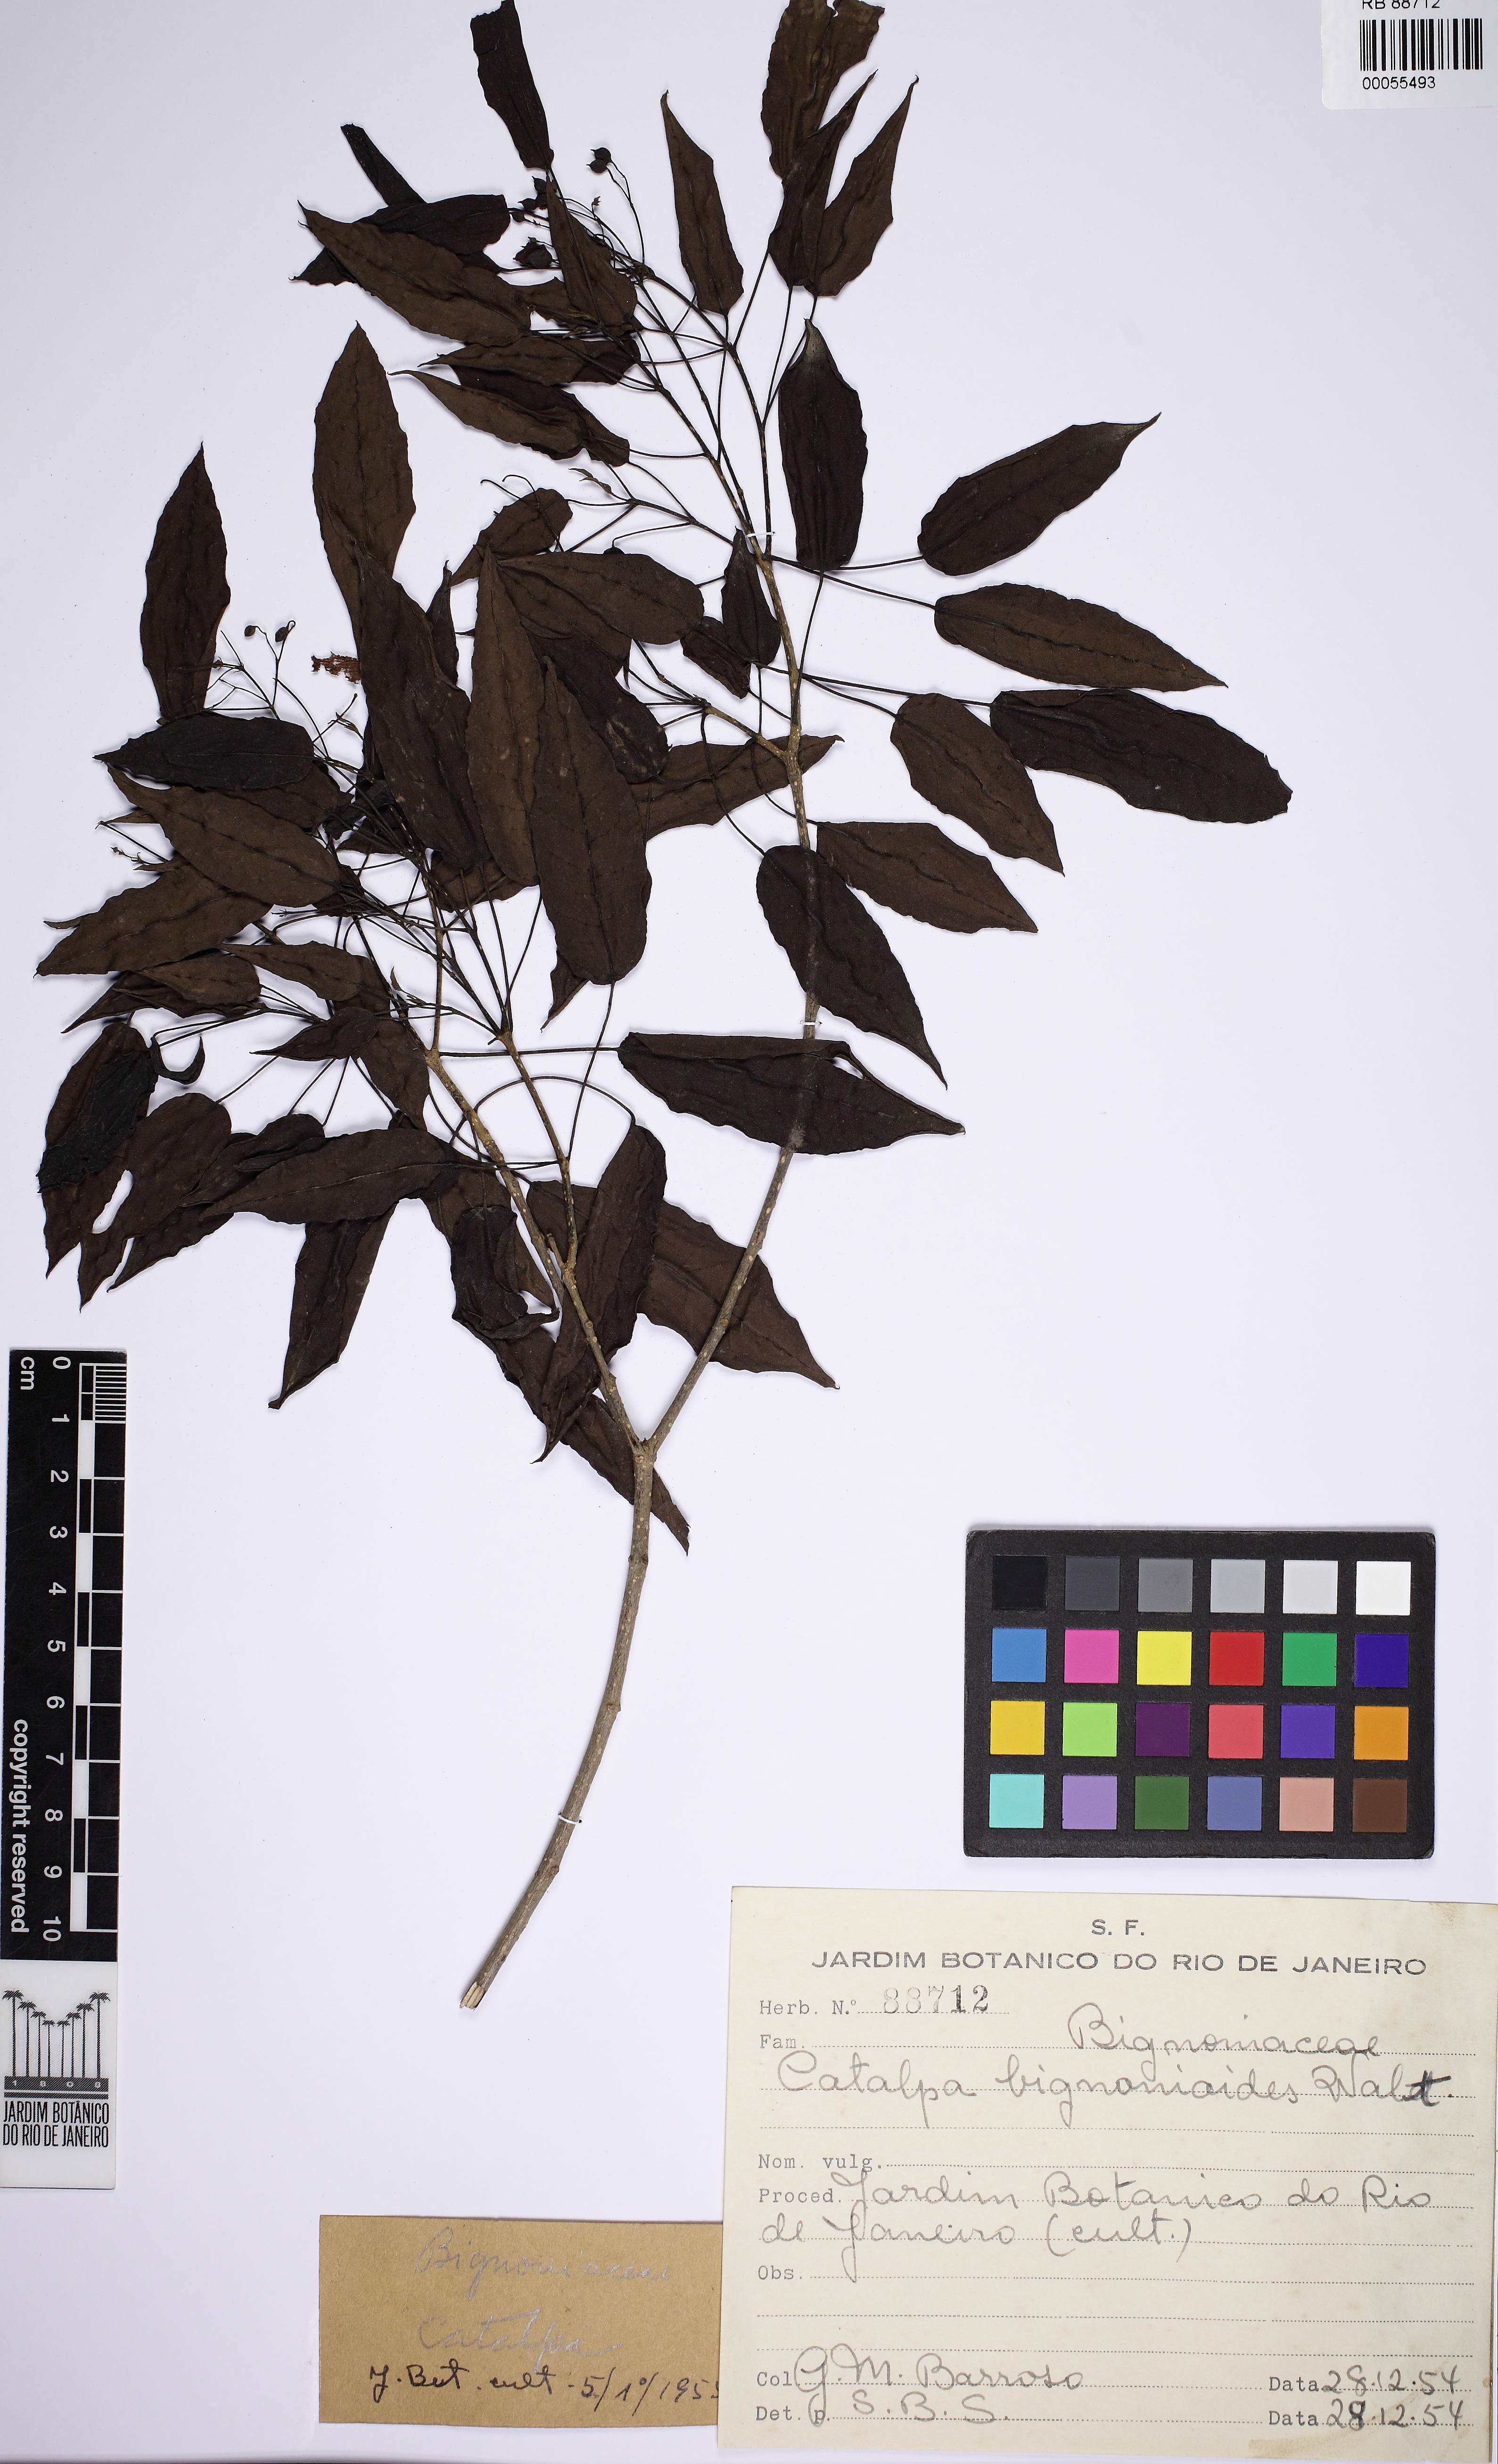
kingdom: Plantae
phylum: Tracheophyta
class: Magnoliopsida
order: Lamiales
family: Bignoniaceae
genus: Catalpa
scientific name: Catalpa bignonioides
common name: Southern catalpa
